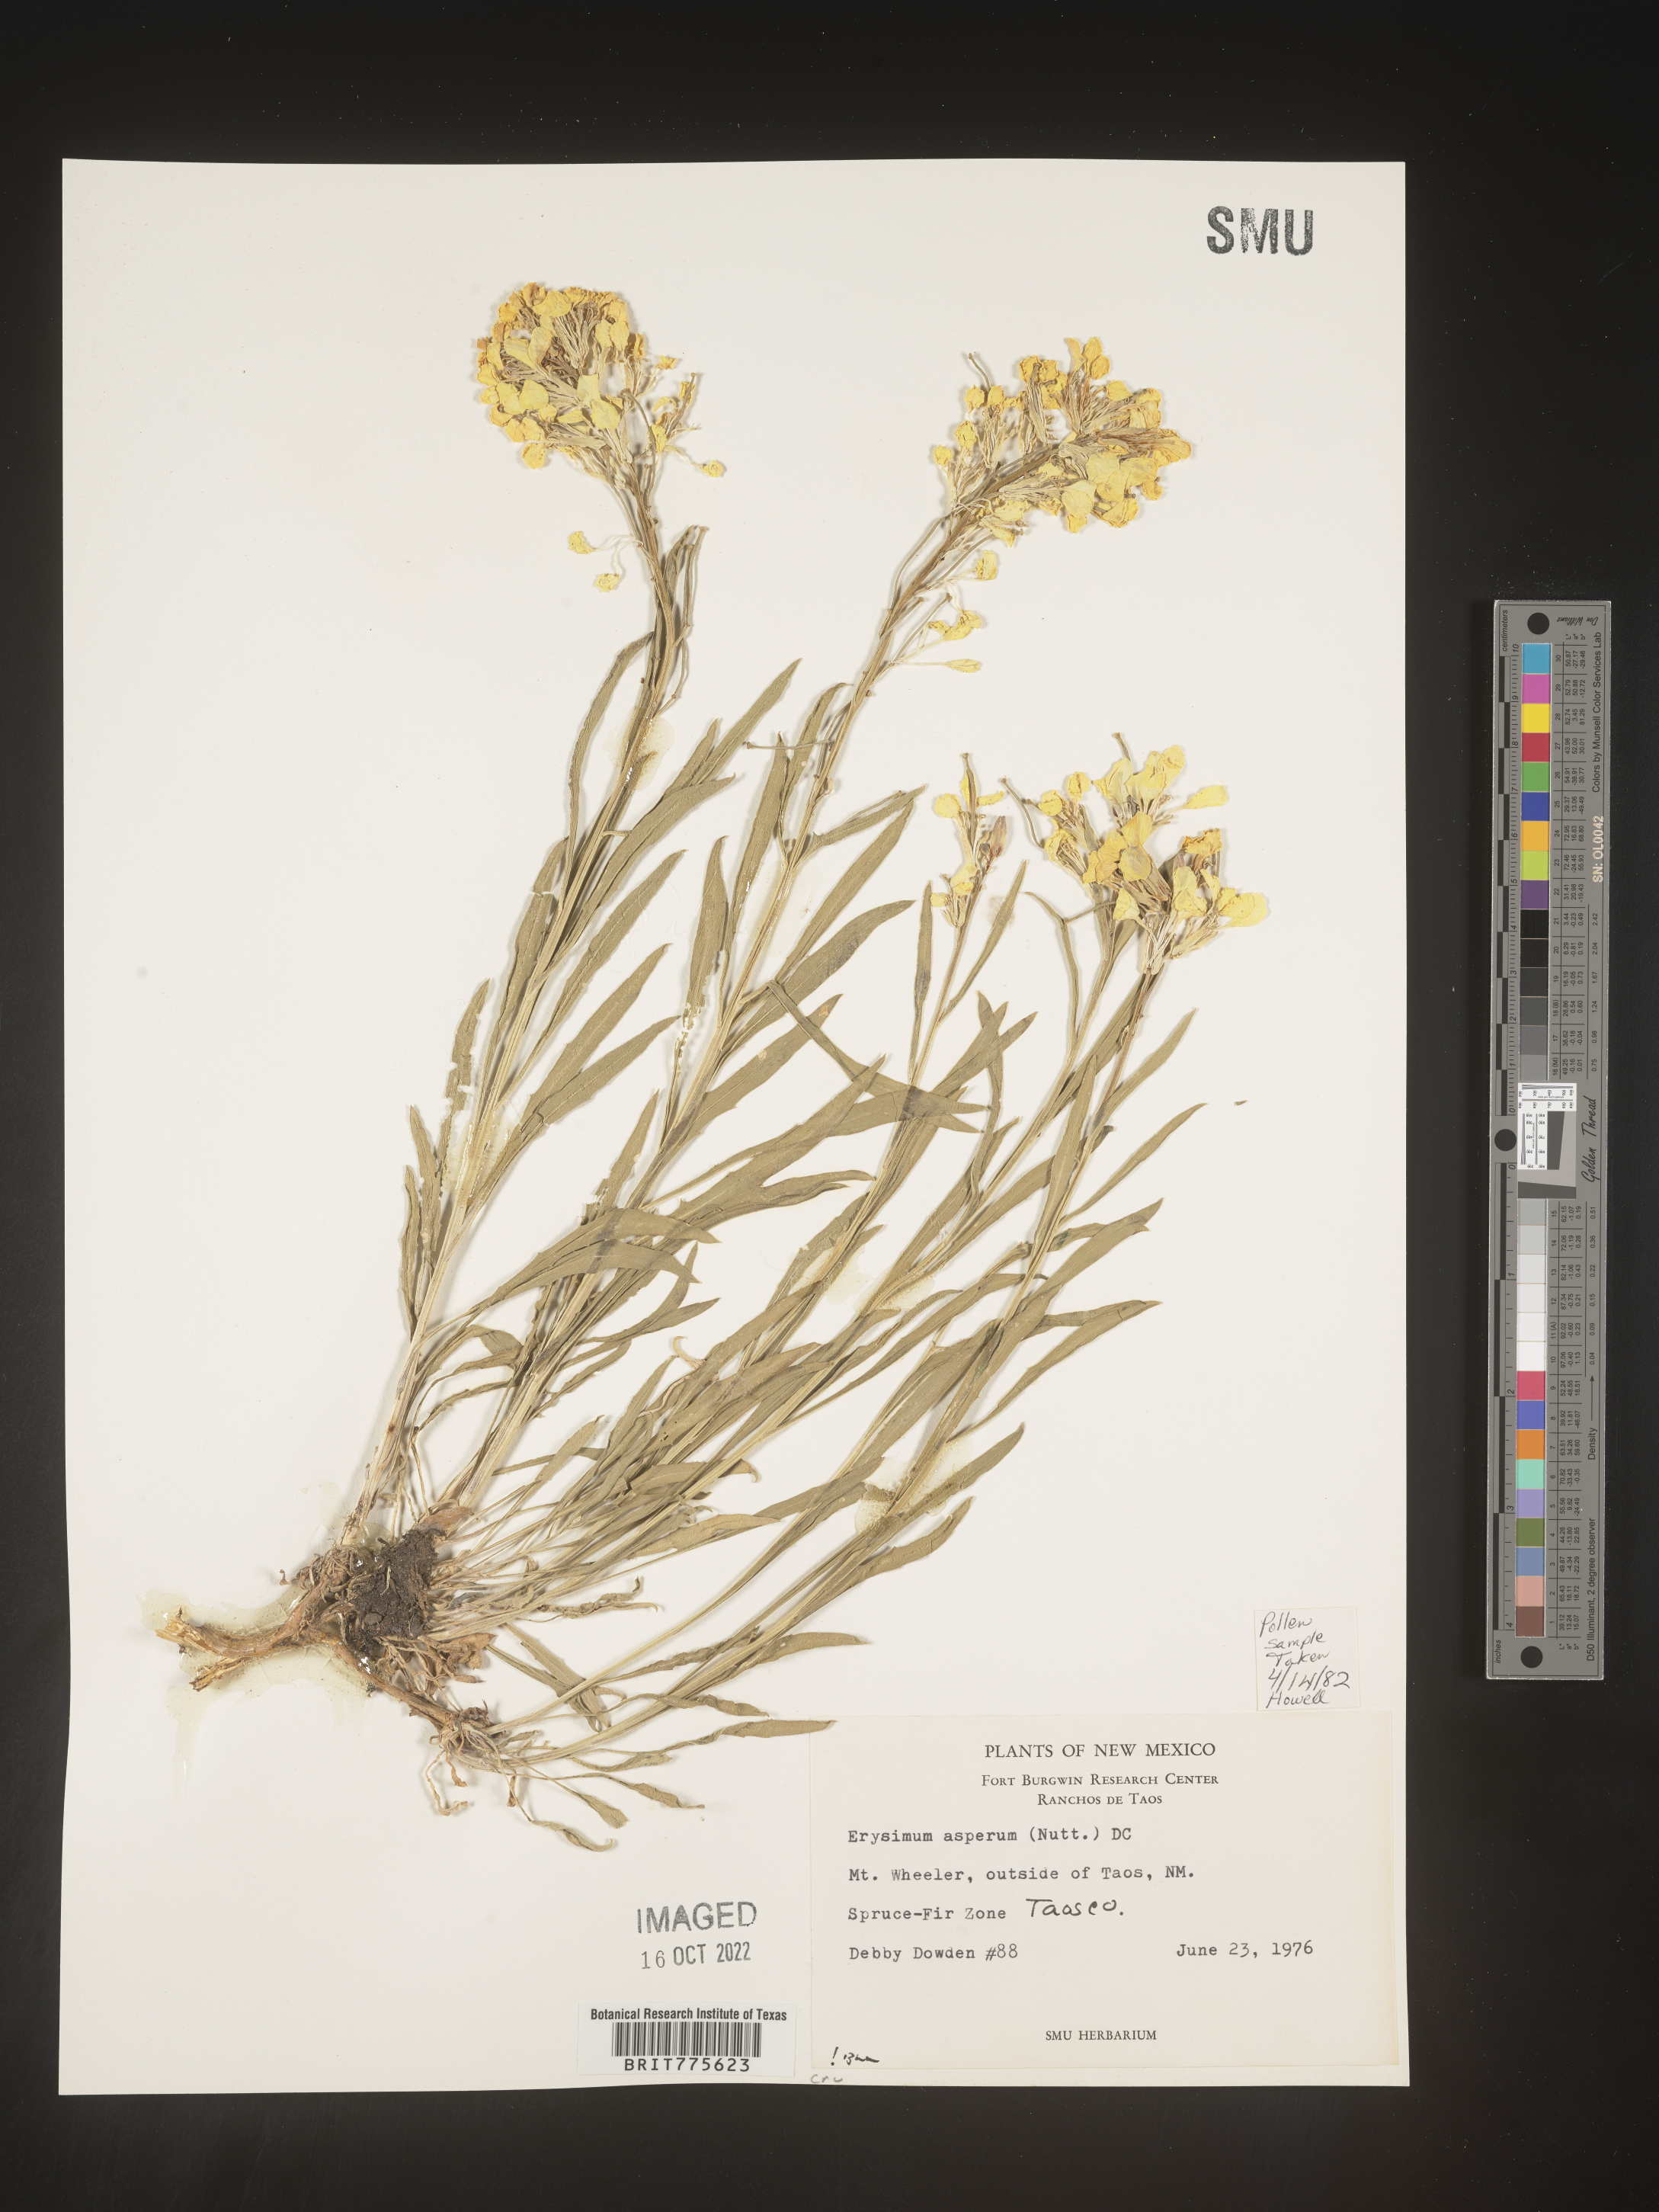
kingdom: Plantae
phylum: Tracheophyta
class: Magnoliopsida
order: Brassicales
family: Brassicaceae
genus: Erysimum
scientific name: Erysimum capitatum
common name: Western wallflower
